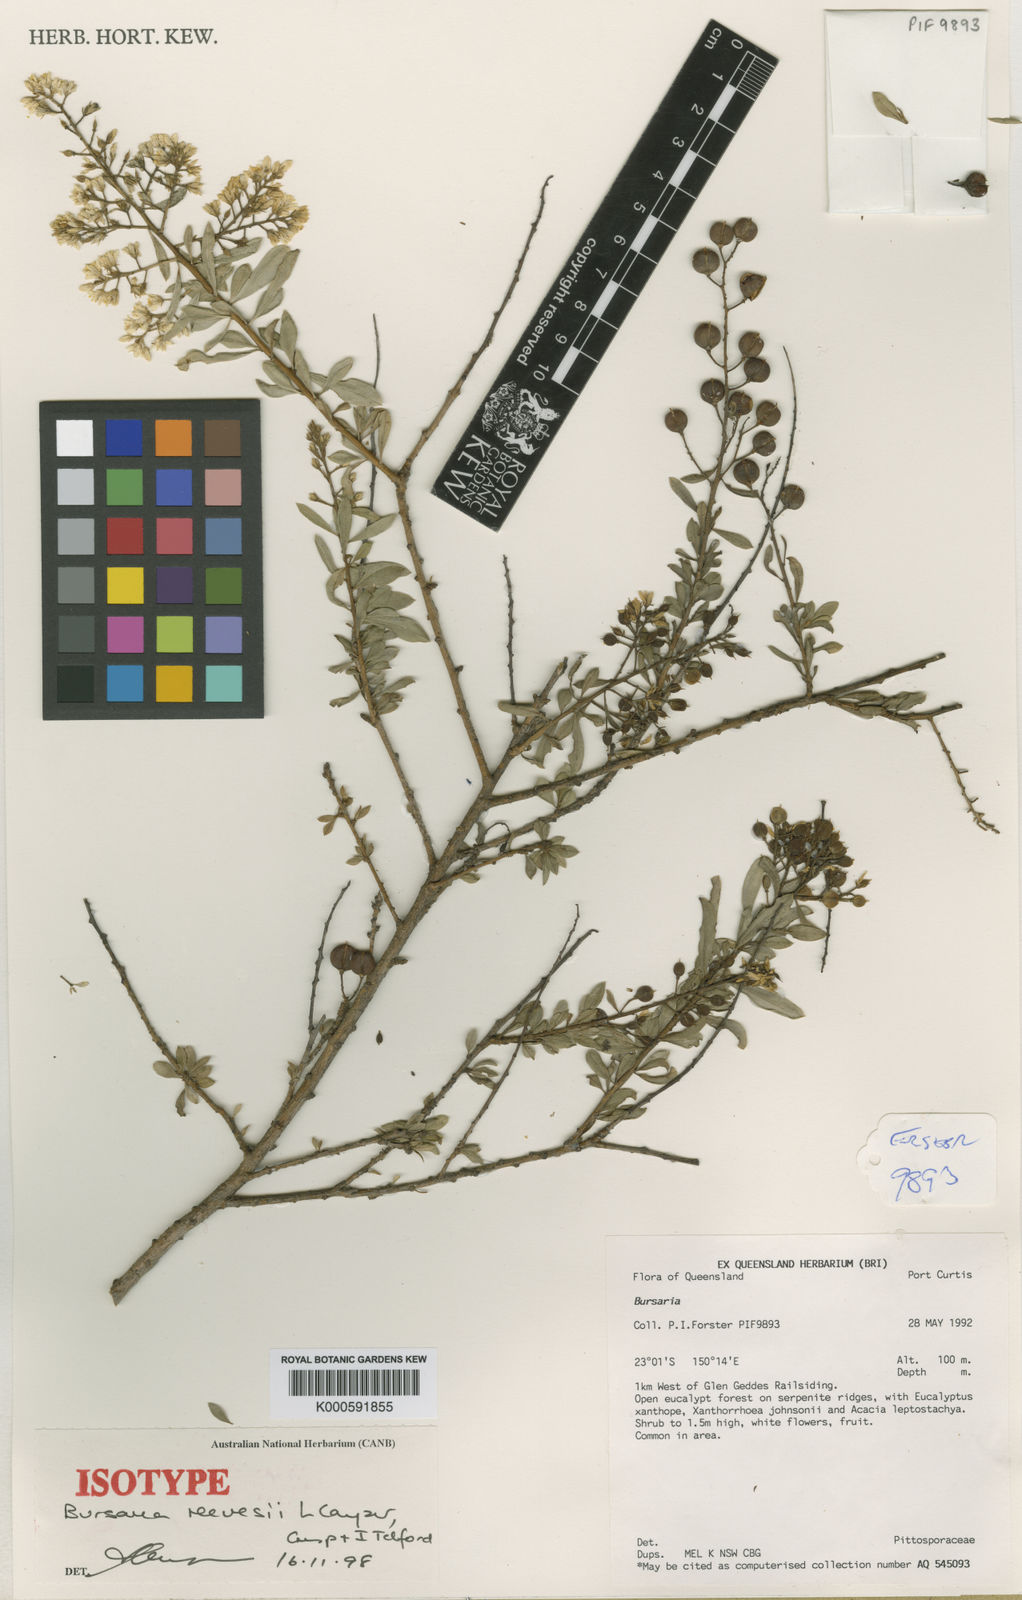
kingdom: Plantae
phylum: Tracheophyta
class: Magnoliopsida
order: Apiales
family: Pittosporaceae
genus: Bursaria
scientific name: Bursaria occidentalis
